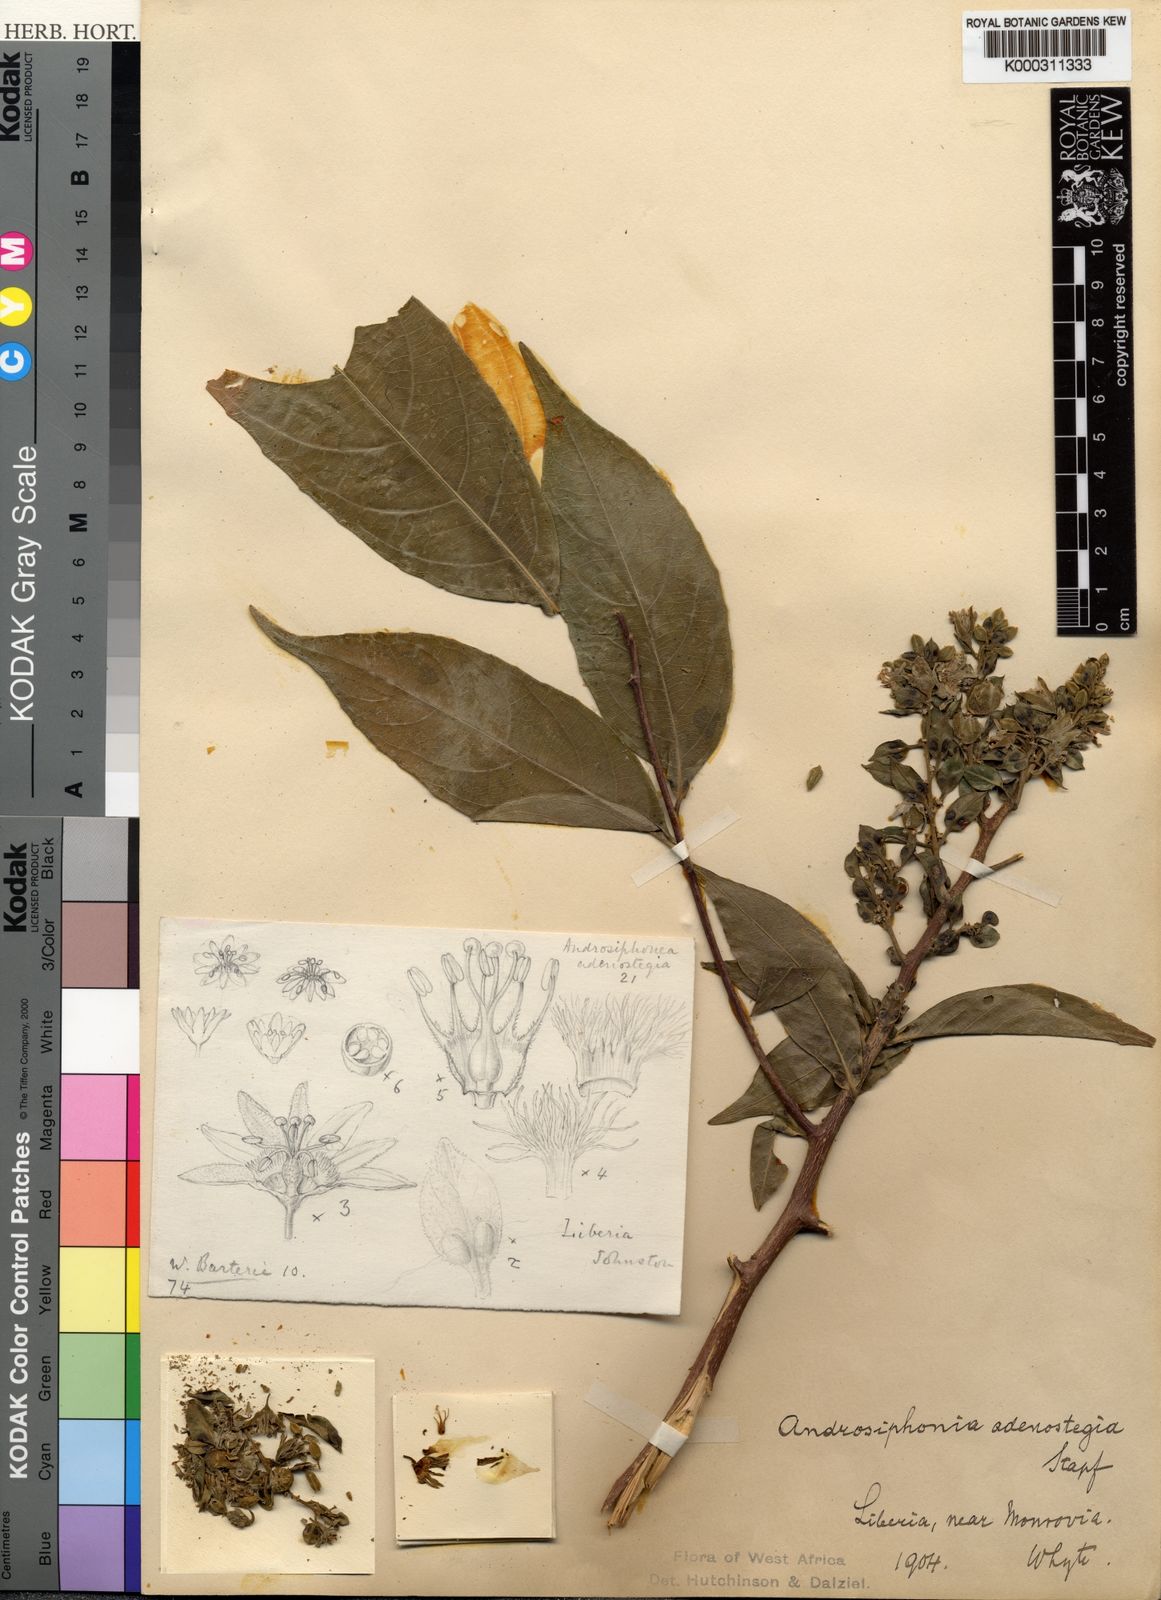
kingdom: Plantae
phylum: Tracheophyta
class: Magnoliopsida
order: Malpighiales
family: Passifloraceae
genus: Androsiphonia
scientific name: Androsiphonia adenostegia
